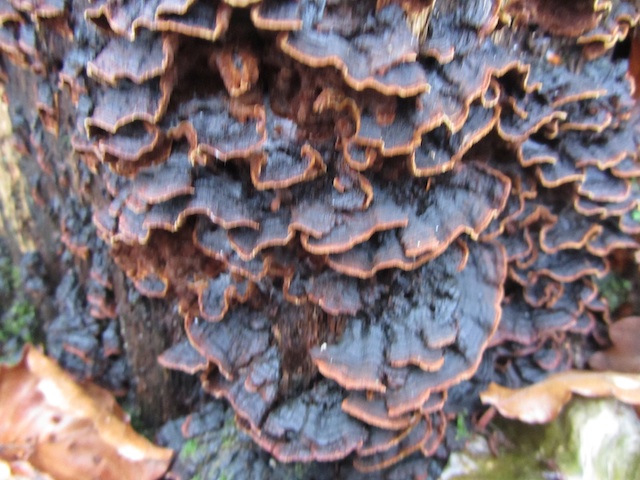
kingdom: Fungi
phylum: Basidiomycota
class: Agaricomycetes
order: Hymenochaetales
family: Hymenochaetaceae
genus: Hymenochaete
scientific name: Hymenochaete rubiginosa
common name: stiv ruslædersvamp
